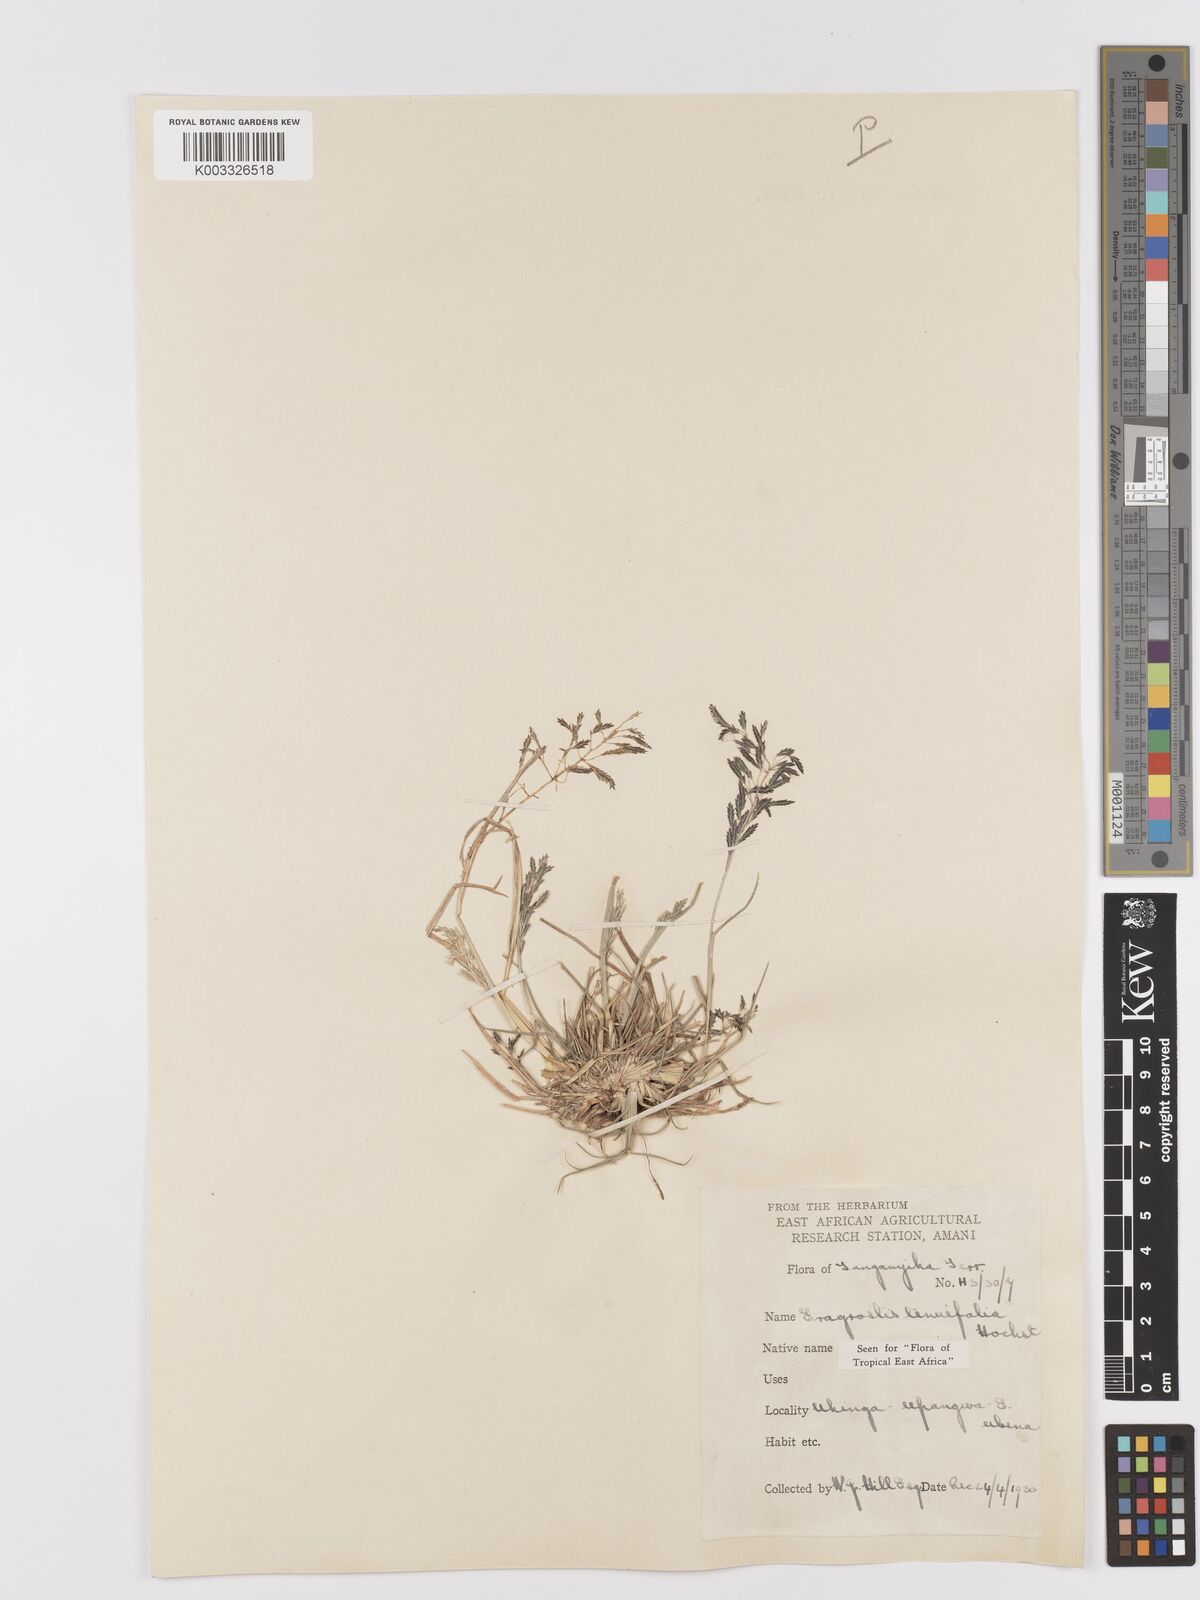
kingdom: Plantae
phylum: Tracheophyta
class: Liliopsida
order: Poales
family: Poaceae
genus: Eragrostis
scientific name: Eragrostis tenuifolia
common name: Elastic grass
